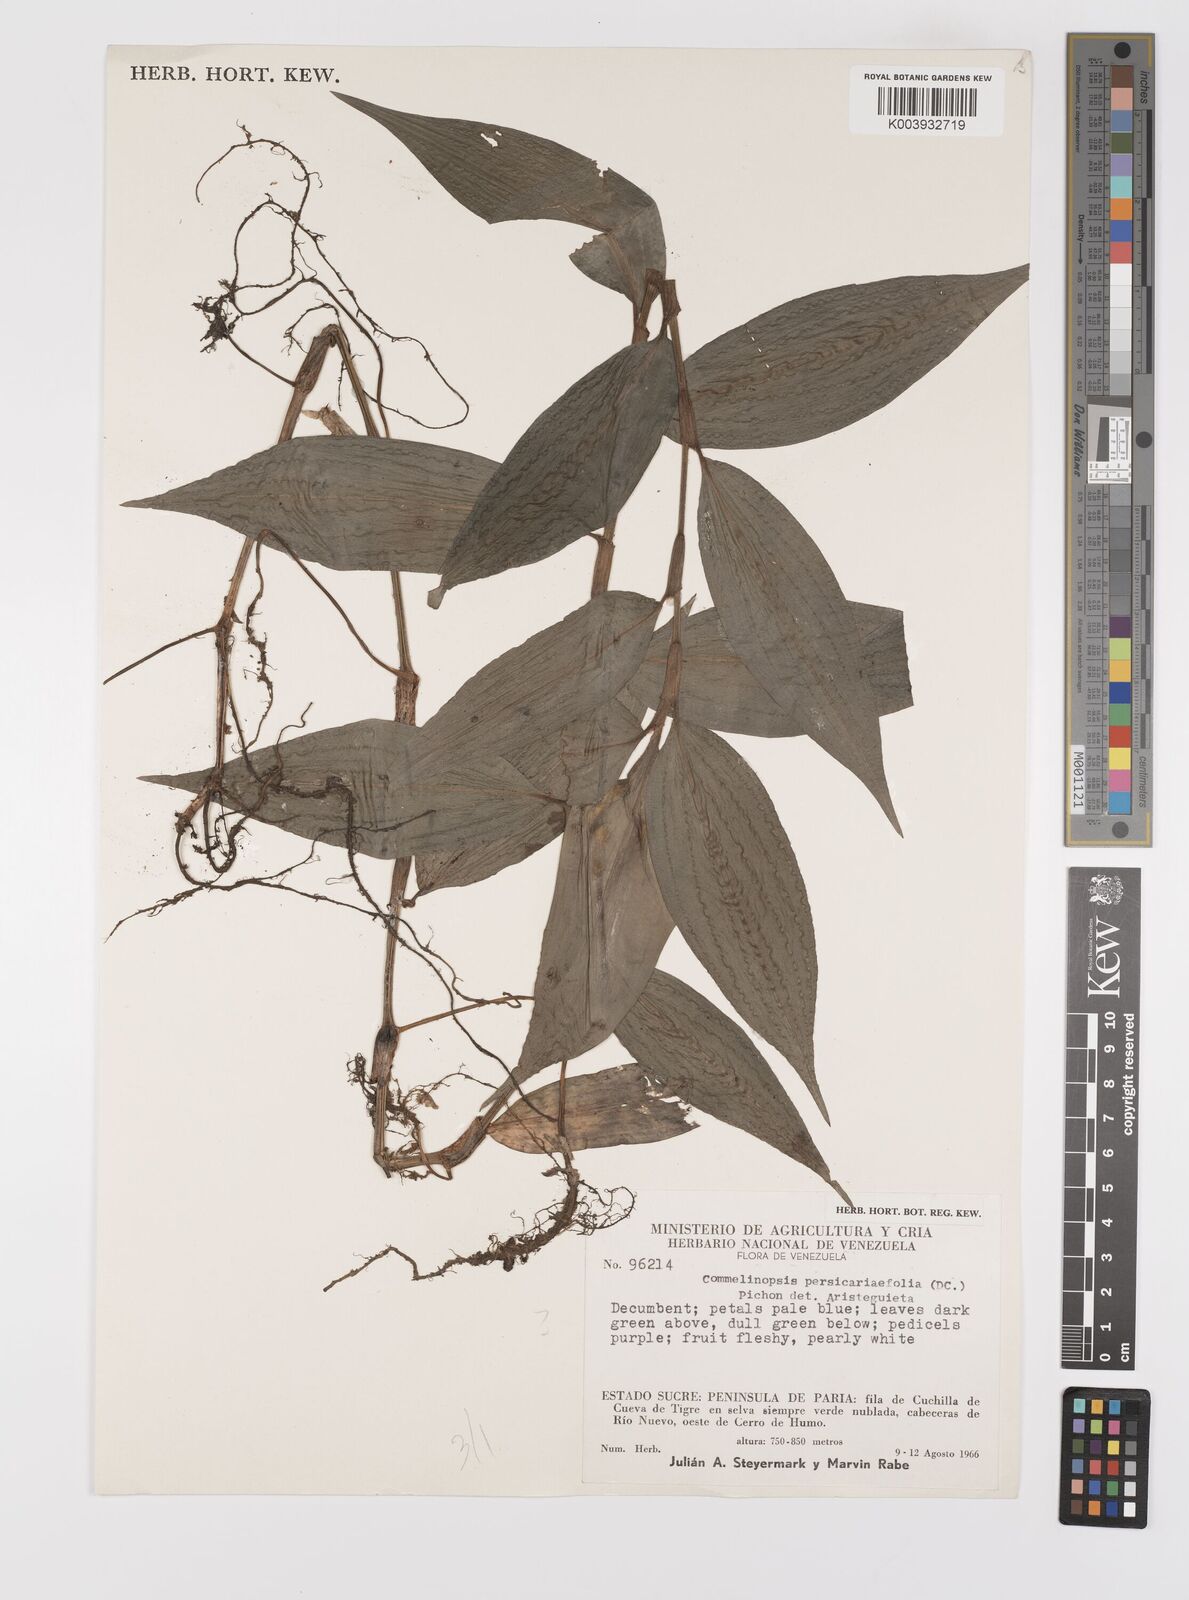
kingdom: Plantae
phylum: Tracheophyta
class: Liliopsida
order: Commelinales
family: Commelinaceae
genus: Commelina
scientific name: Commelina rufipes
